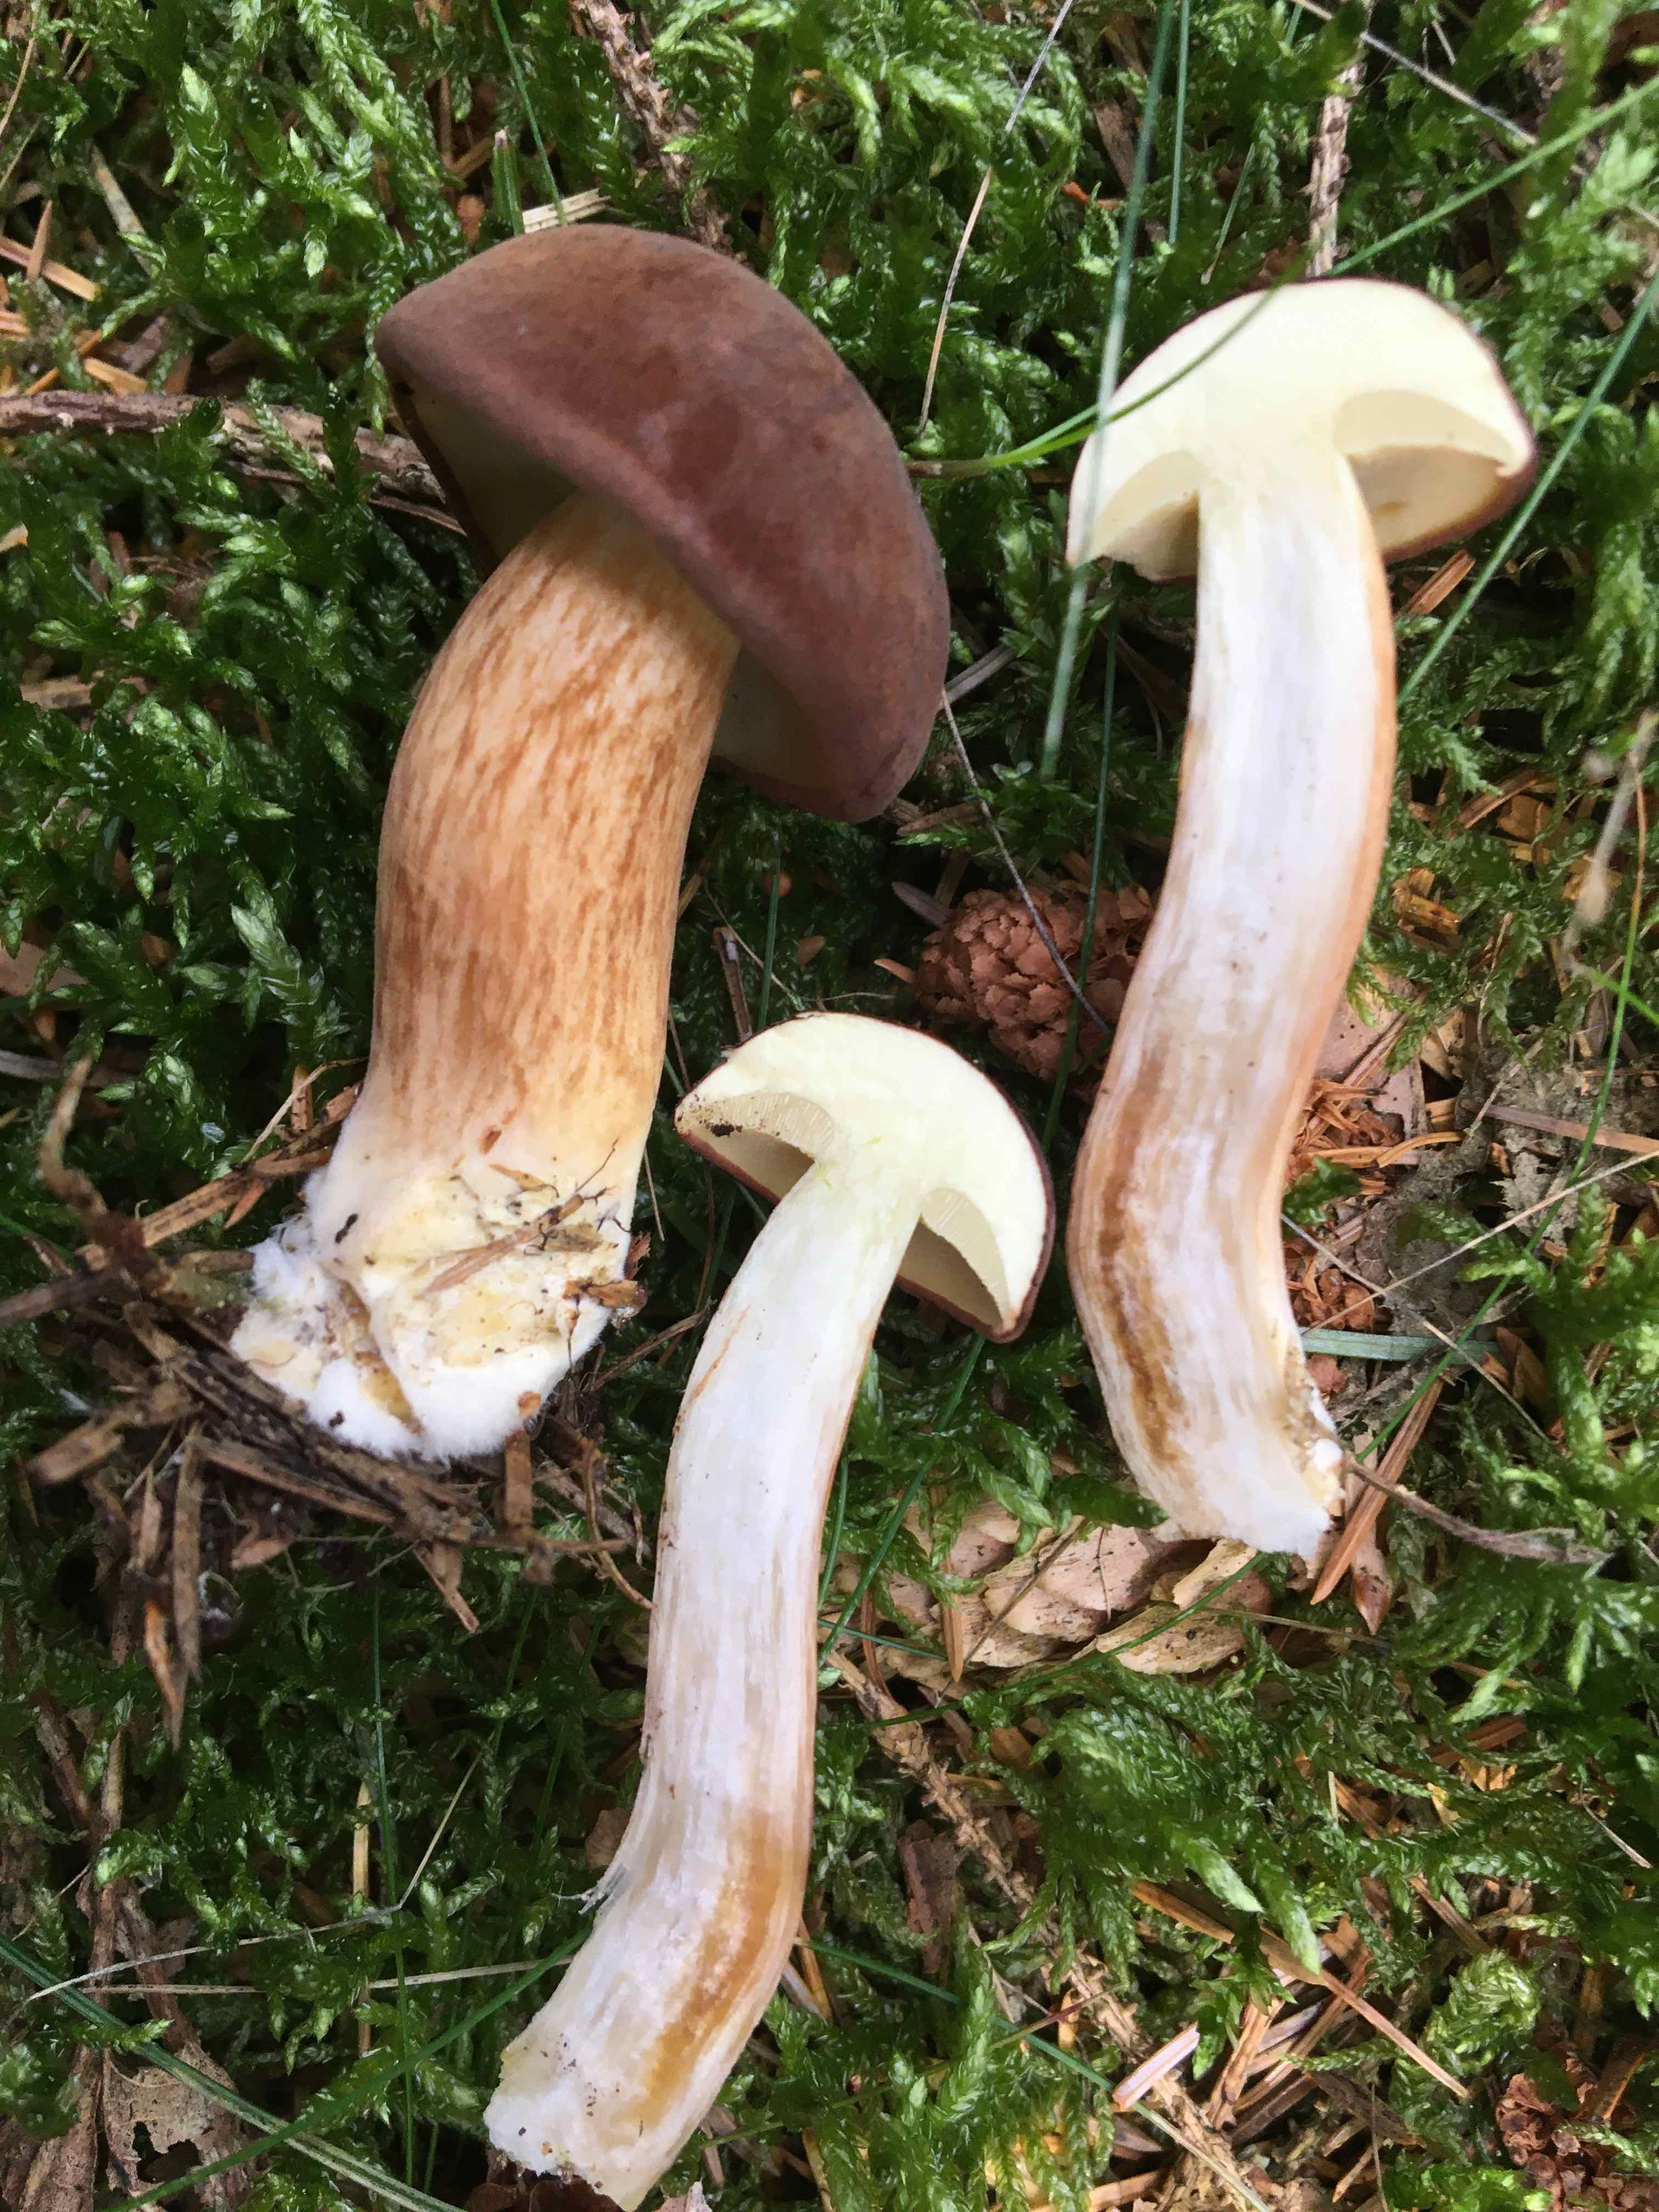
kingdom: Fungi
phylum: Basidiomycota
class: Agaricomycetes
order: Boletales
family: Boletaceae
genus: Imleria
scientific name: Imleria badia
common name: brunstokket rørhat
